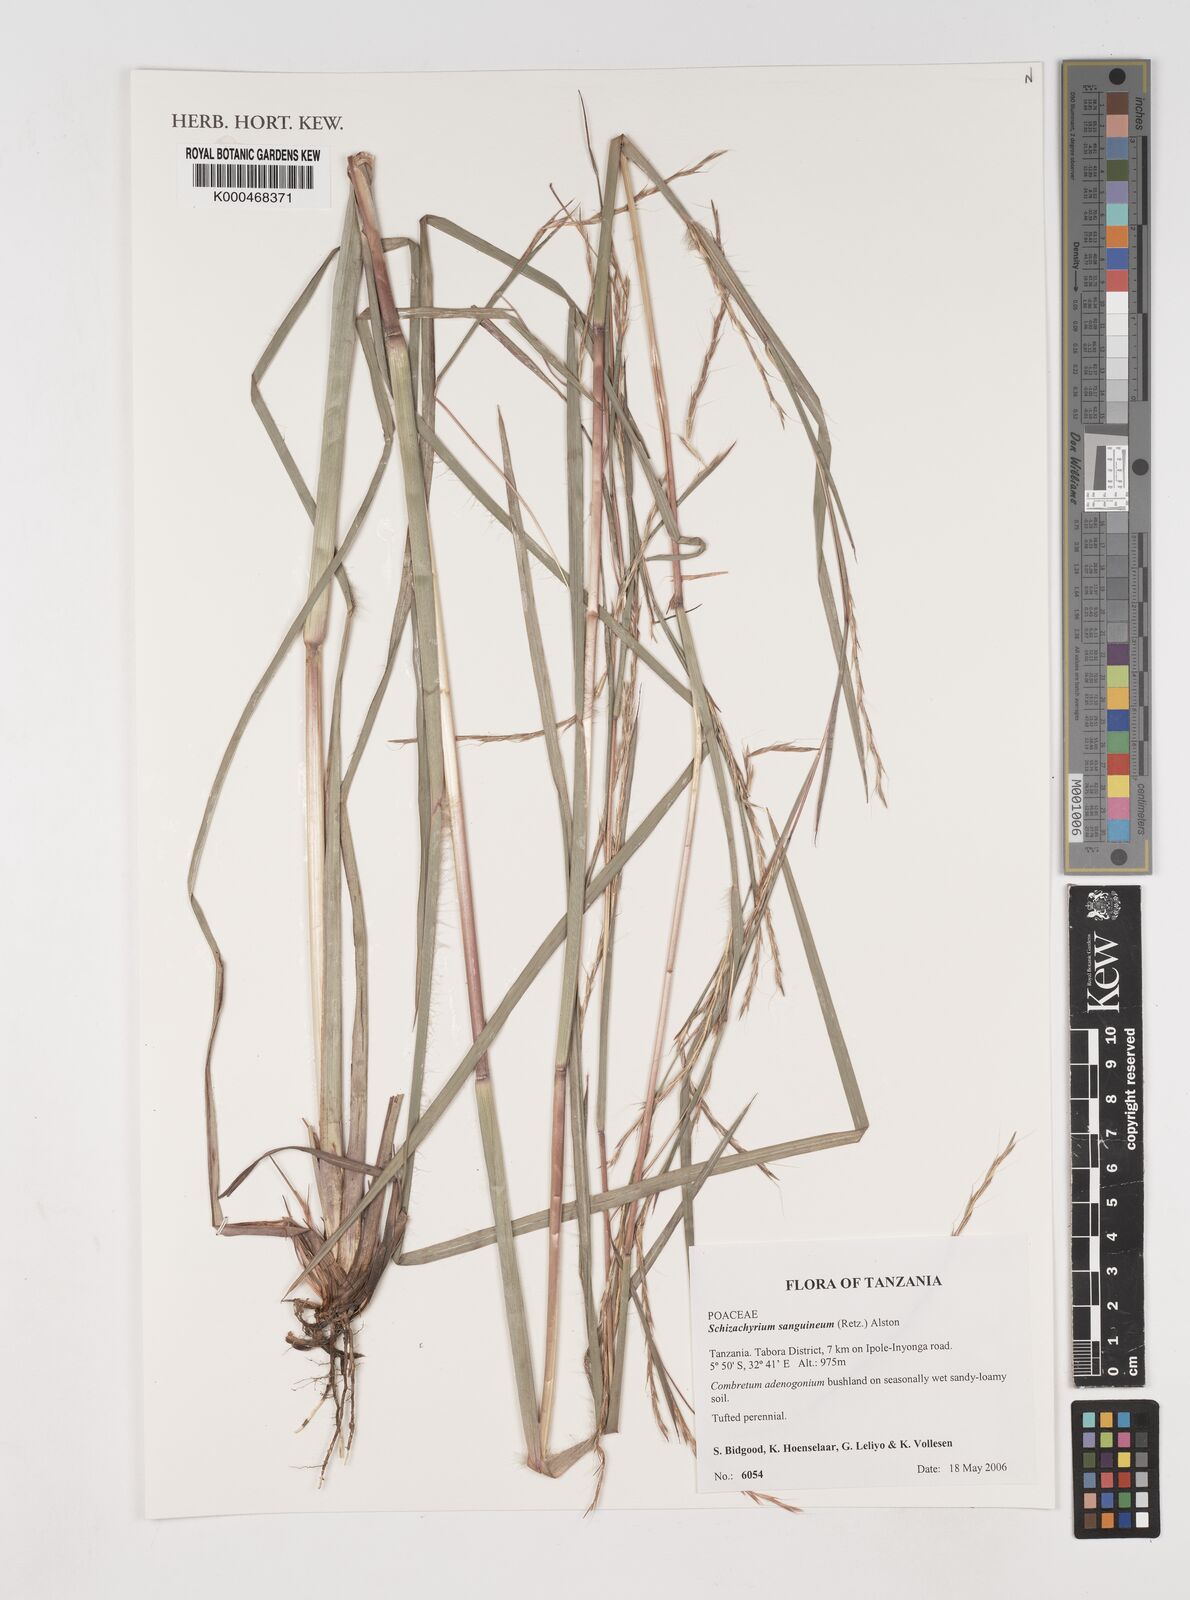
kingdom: Plantae
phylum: Tracheophyta
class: Liliopsida
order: Poales
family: Poaceae
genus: Schizachyrium
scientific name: Schizachyrium sanguineum
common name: Crimson bluestem
